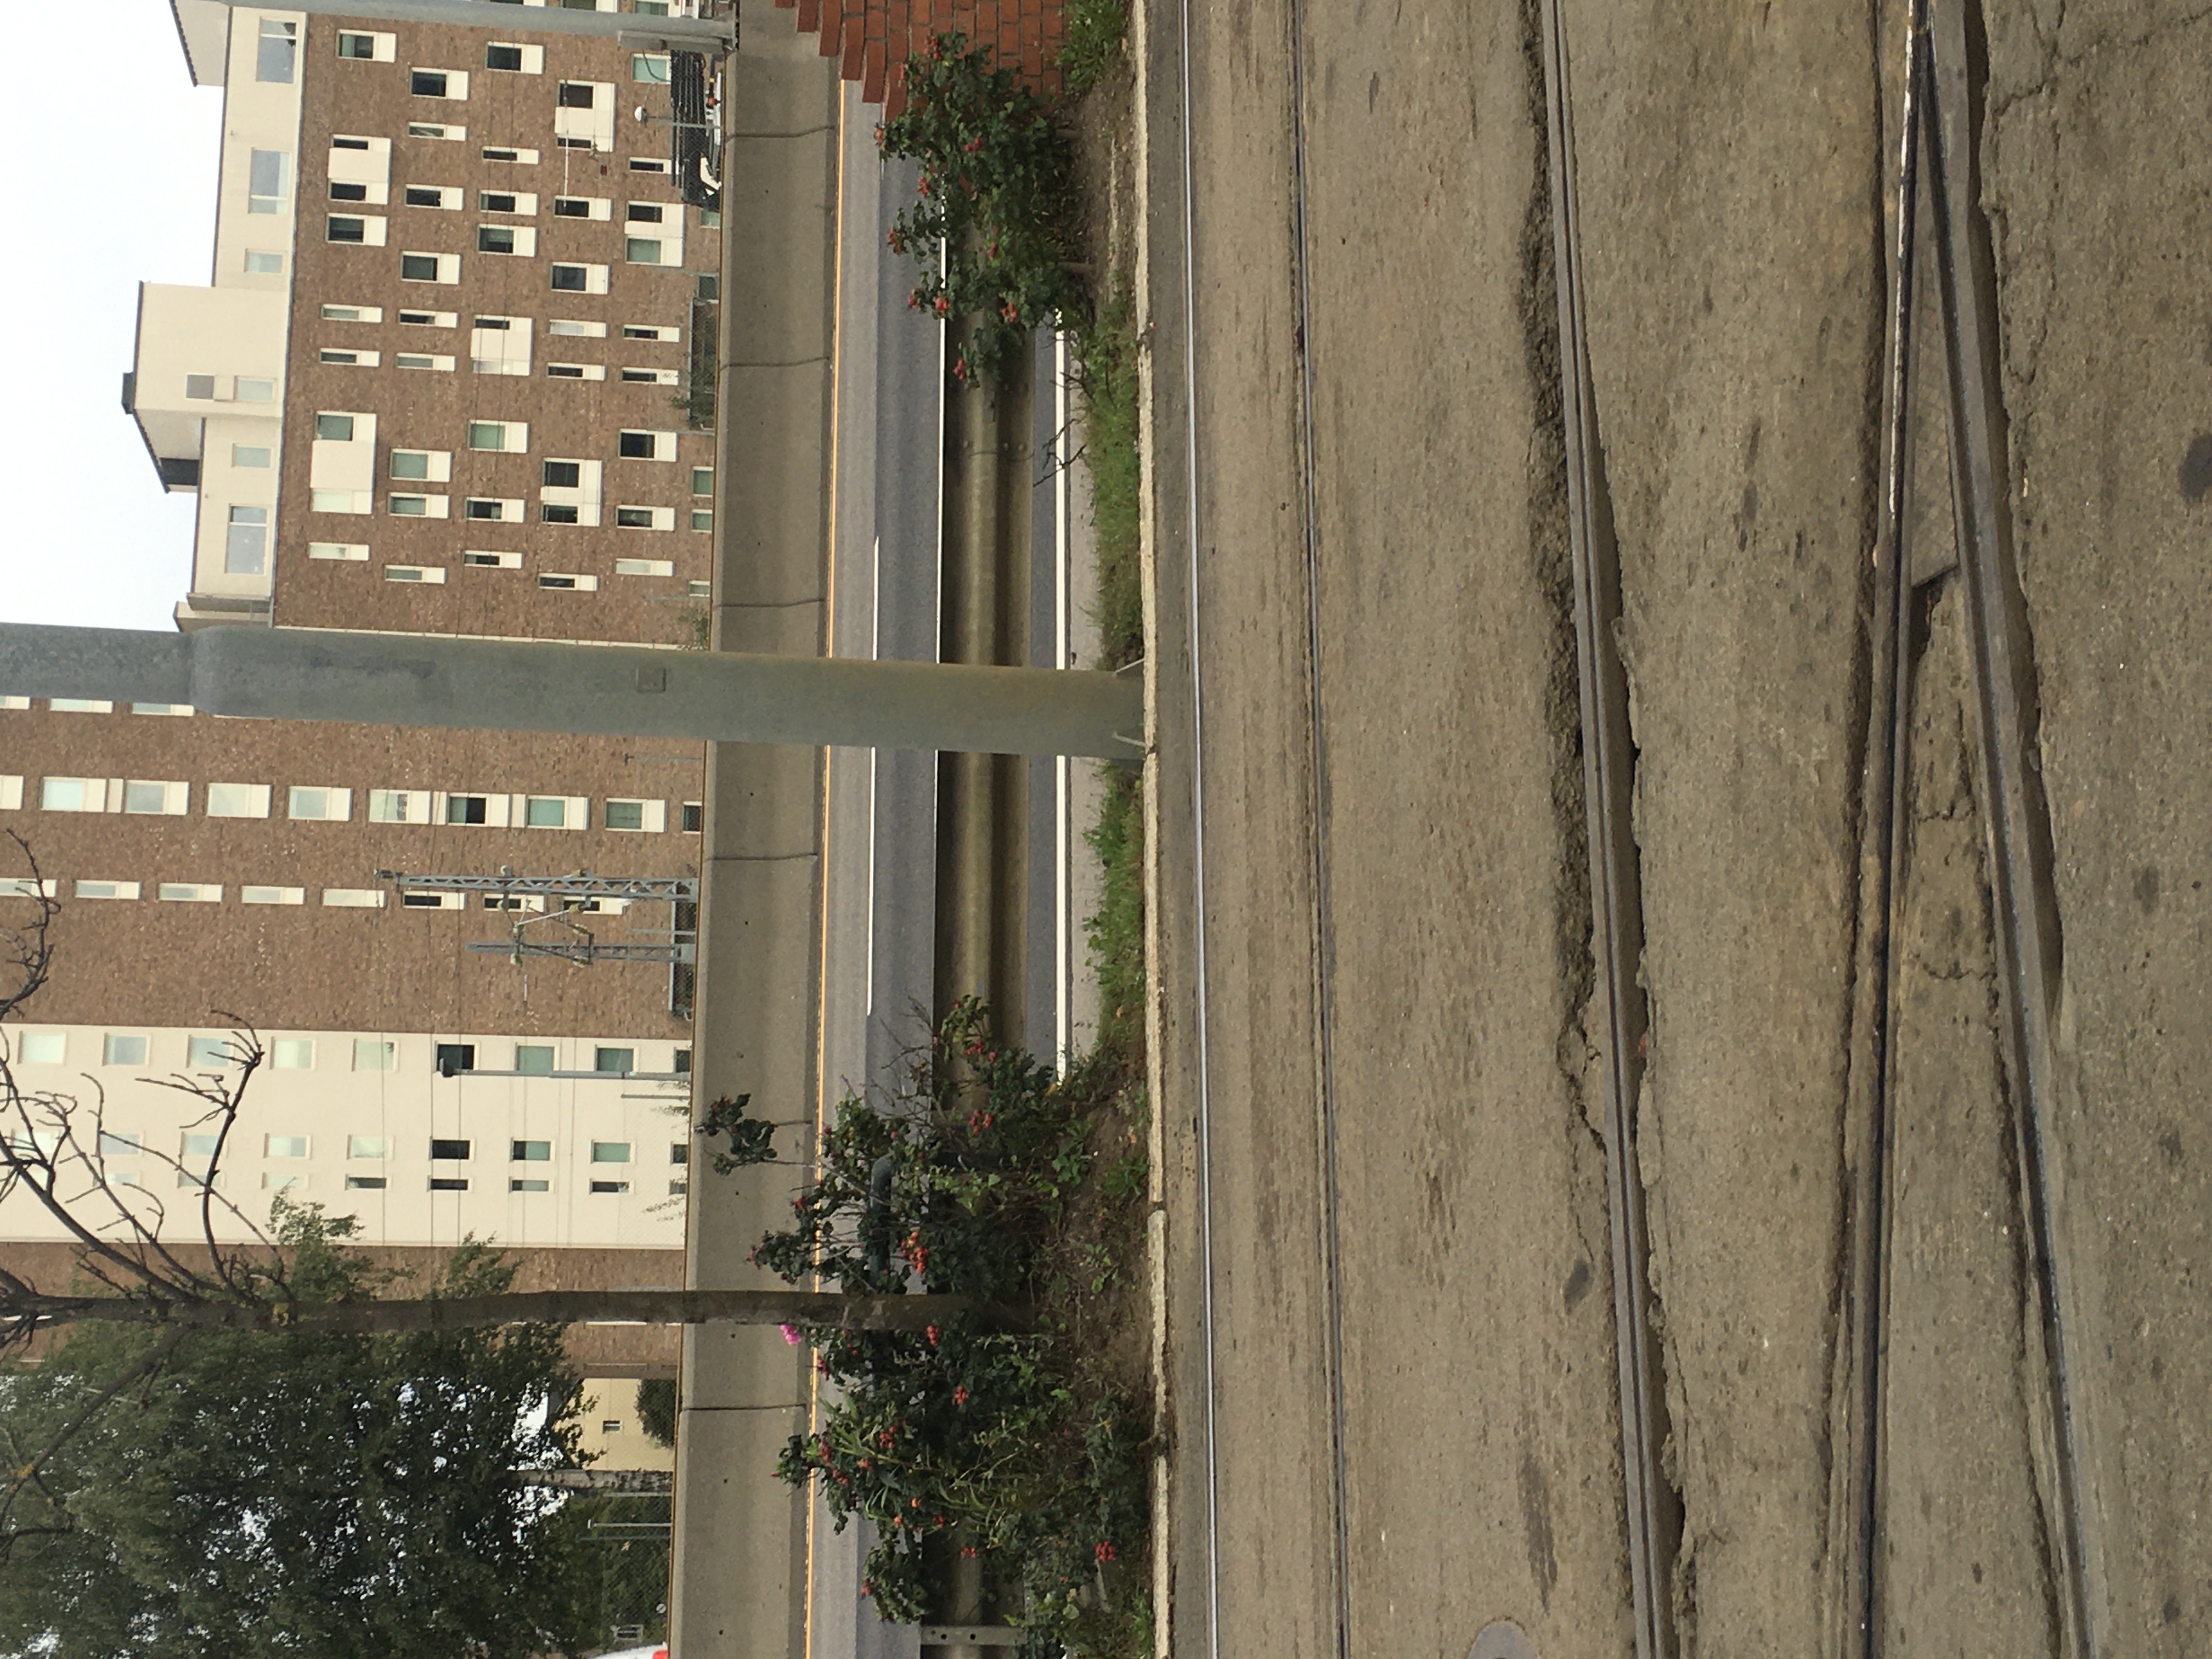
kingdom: Plantae
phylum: Tracheophyta
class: Magnoliopsida
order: Rosales
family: Rosaceae
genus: Rosa
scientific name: Rosa rugosa
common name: rynkerose
